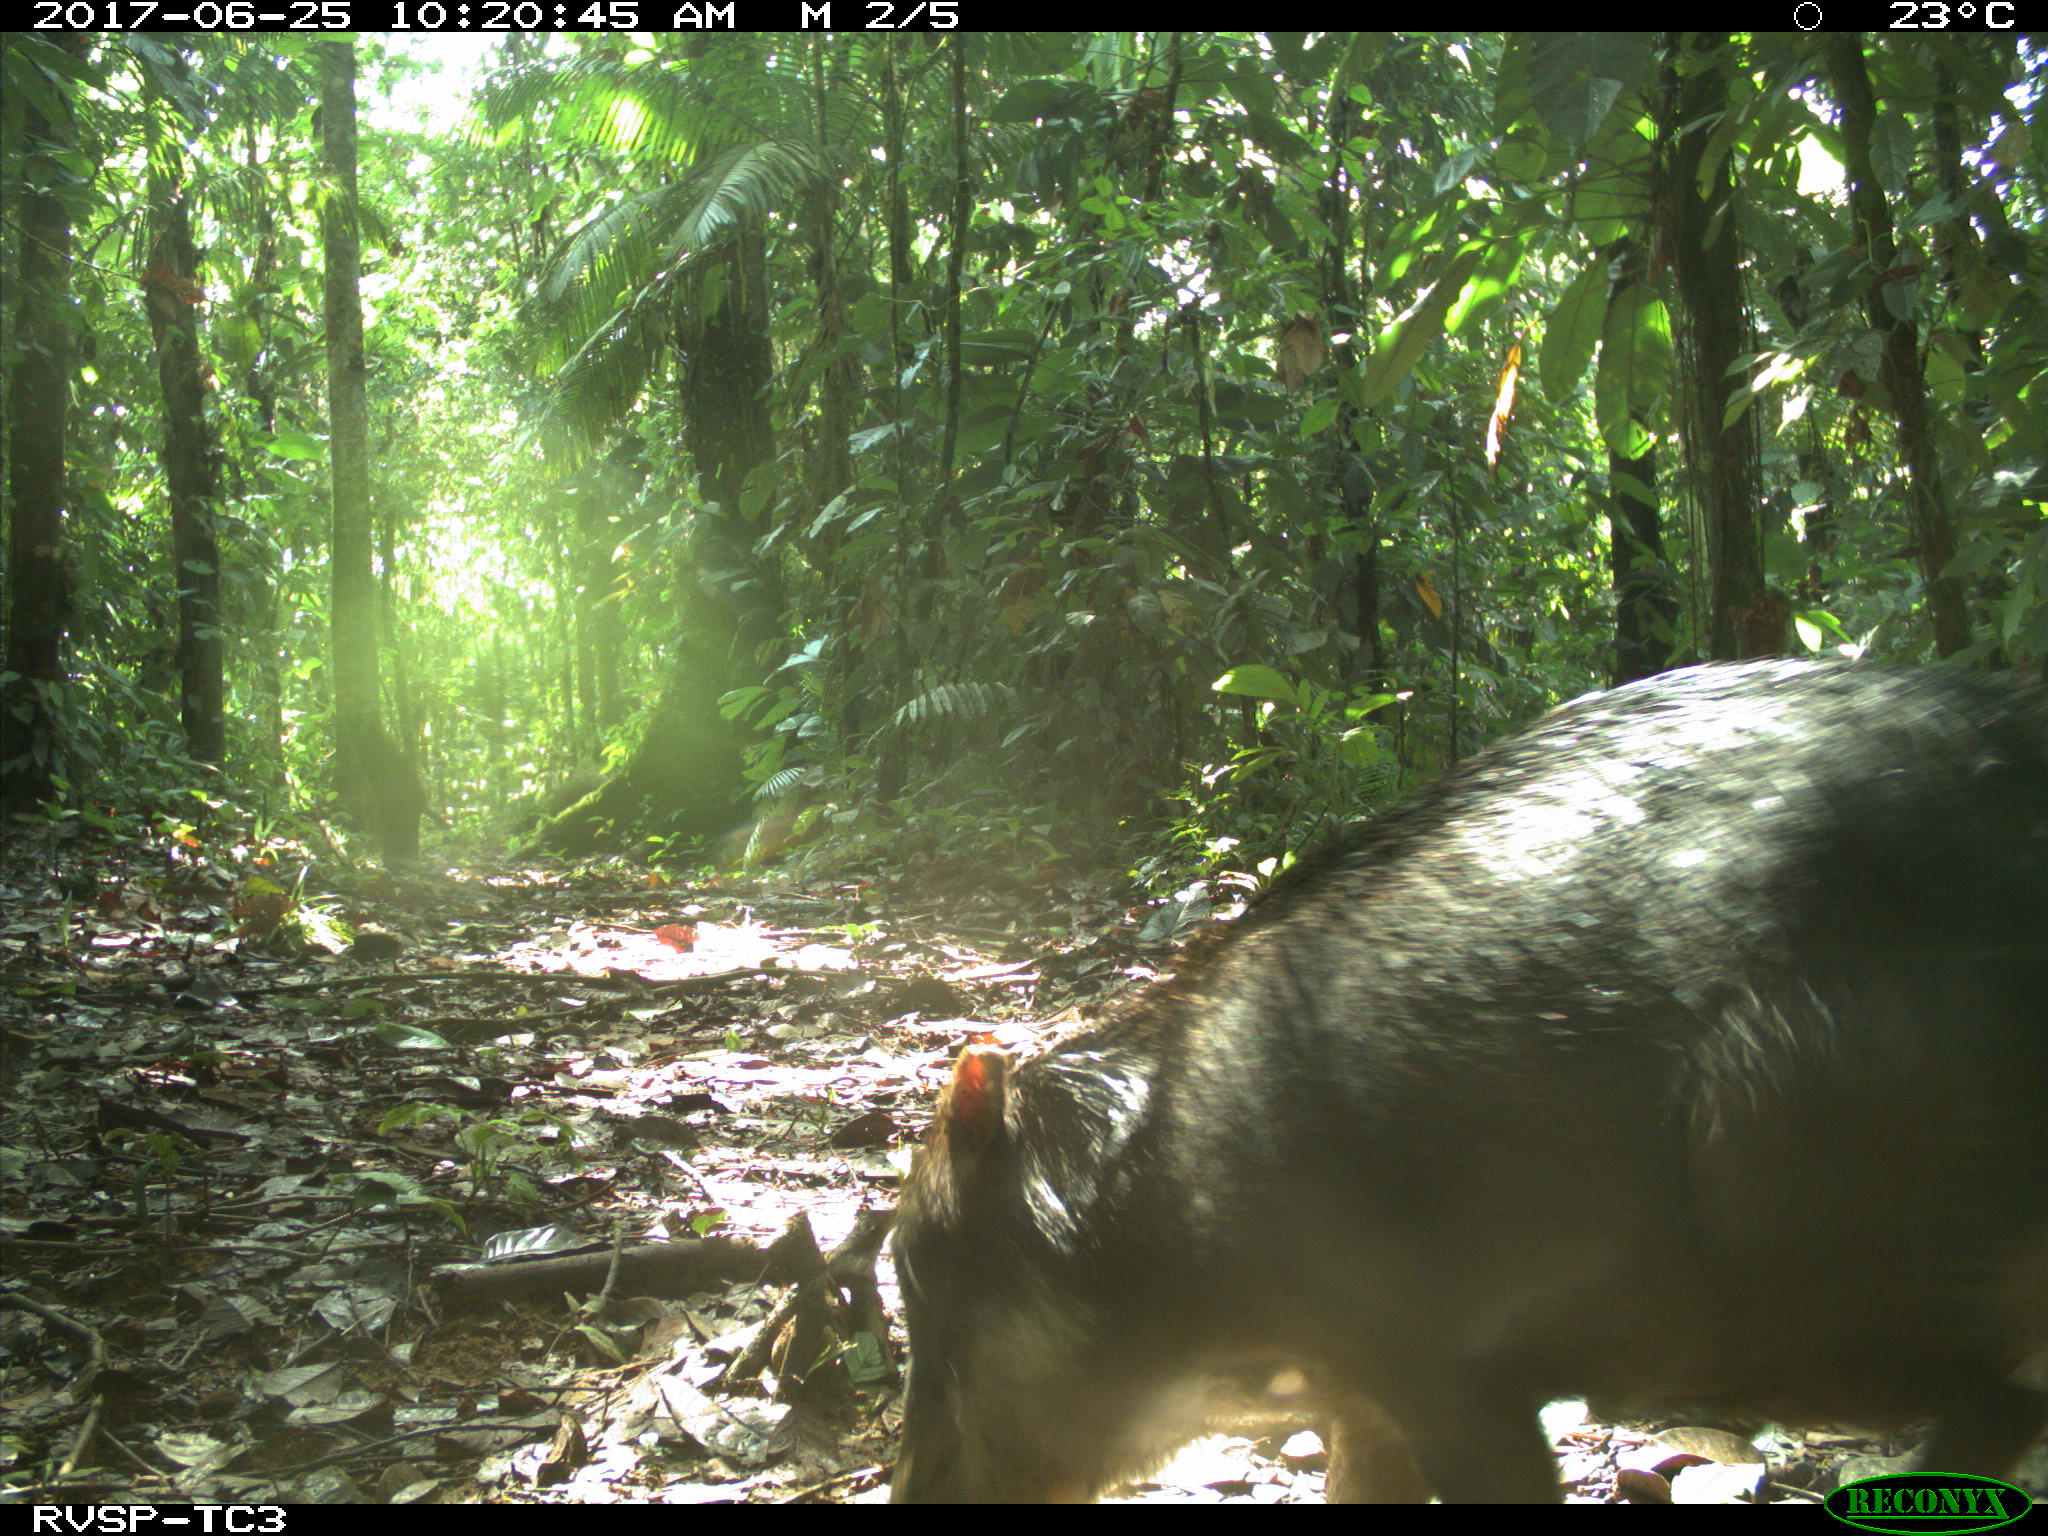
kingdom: Animalia
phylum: Chordata
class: Mammalia
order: Artiodactyla
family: Tayassuidae
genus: Tayassu
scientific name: Tayassu pecari
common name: White-lipped peccary
